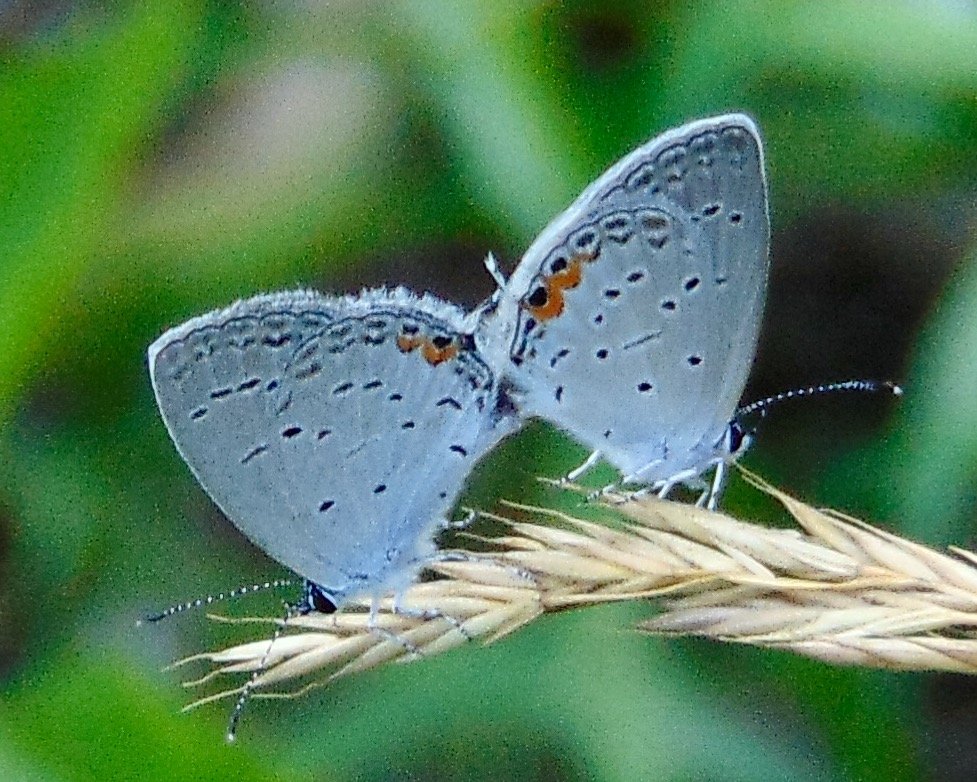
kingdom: Animalia
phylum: Arthropoda
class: Insecta
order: Lepidoptera
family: Lycaenidae
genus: Elkalyce
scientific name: Elkalyce comyntas
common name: Eastern Tailed-Blue
